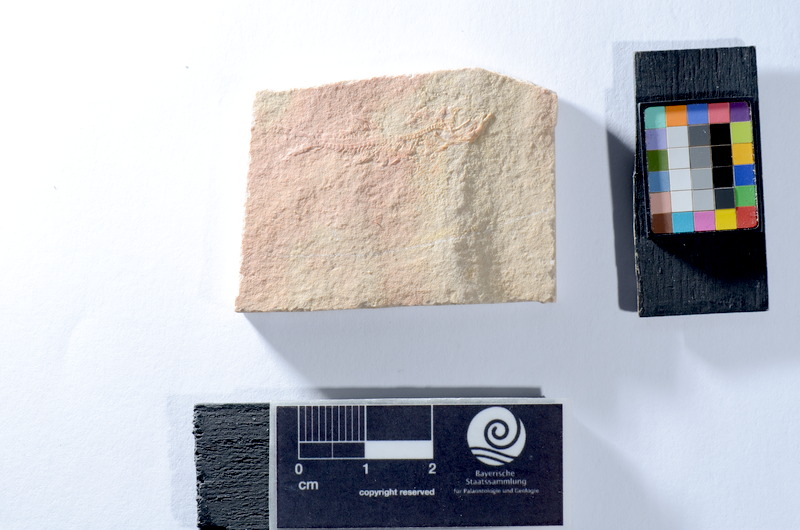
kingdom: Animalia
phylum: Chordata
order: Salmoniformes
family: Orthogonikleithridae
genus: Leptolepides
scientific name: Leptolepides
